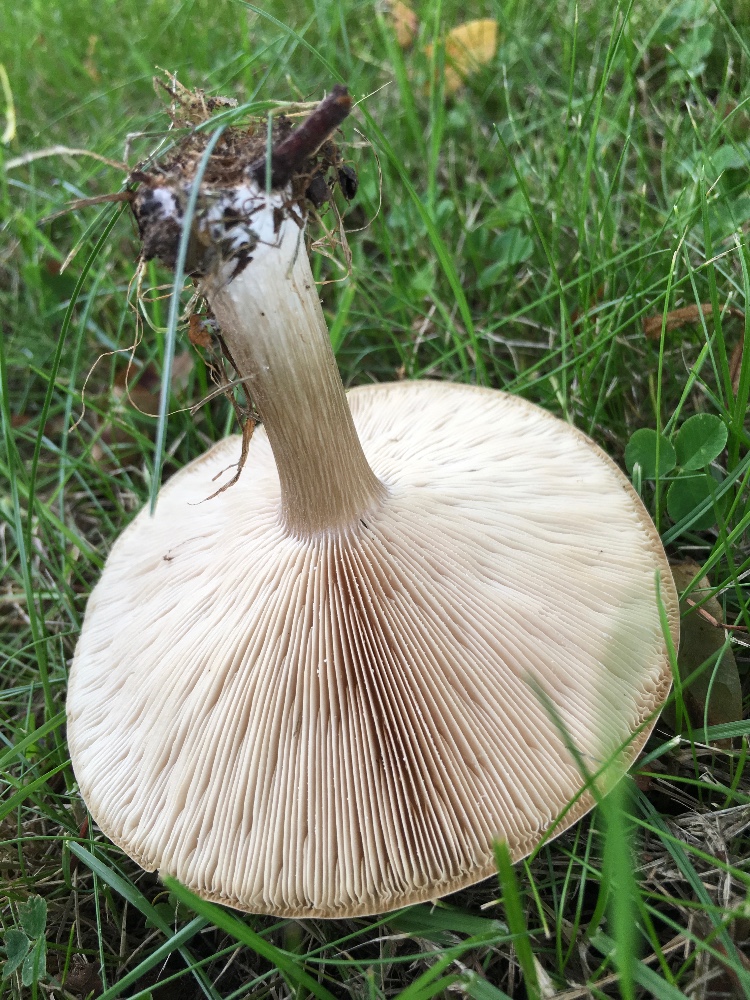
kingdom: Fungi
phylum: Basidiomycota
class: Agaricomycetes
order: Agaricales
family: Tricholomataceae
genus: Melanoleuca
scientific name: Melanoleuca
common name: munkehat
